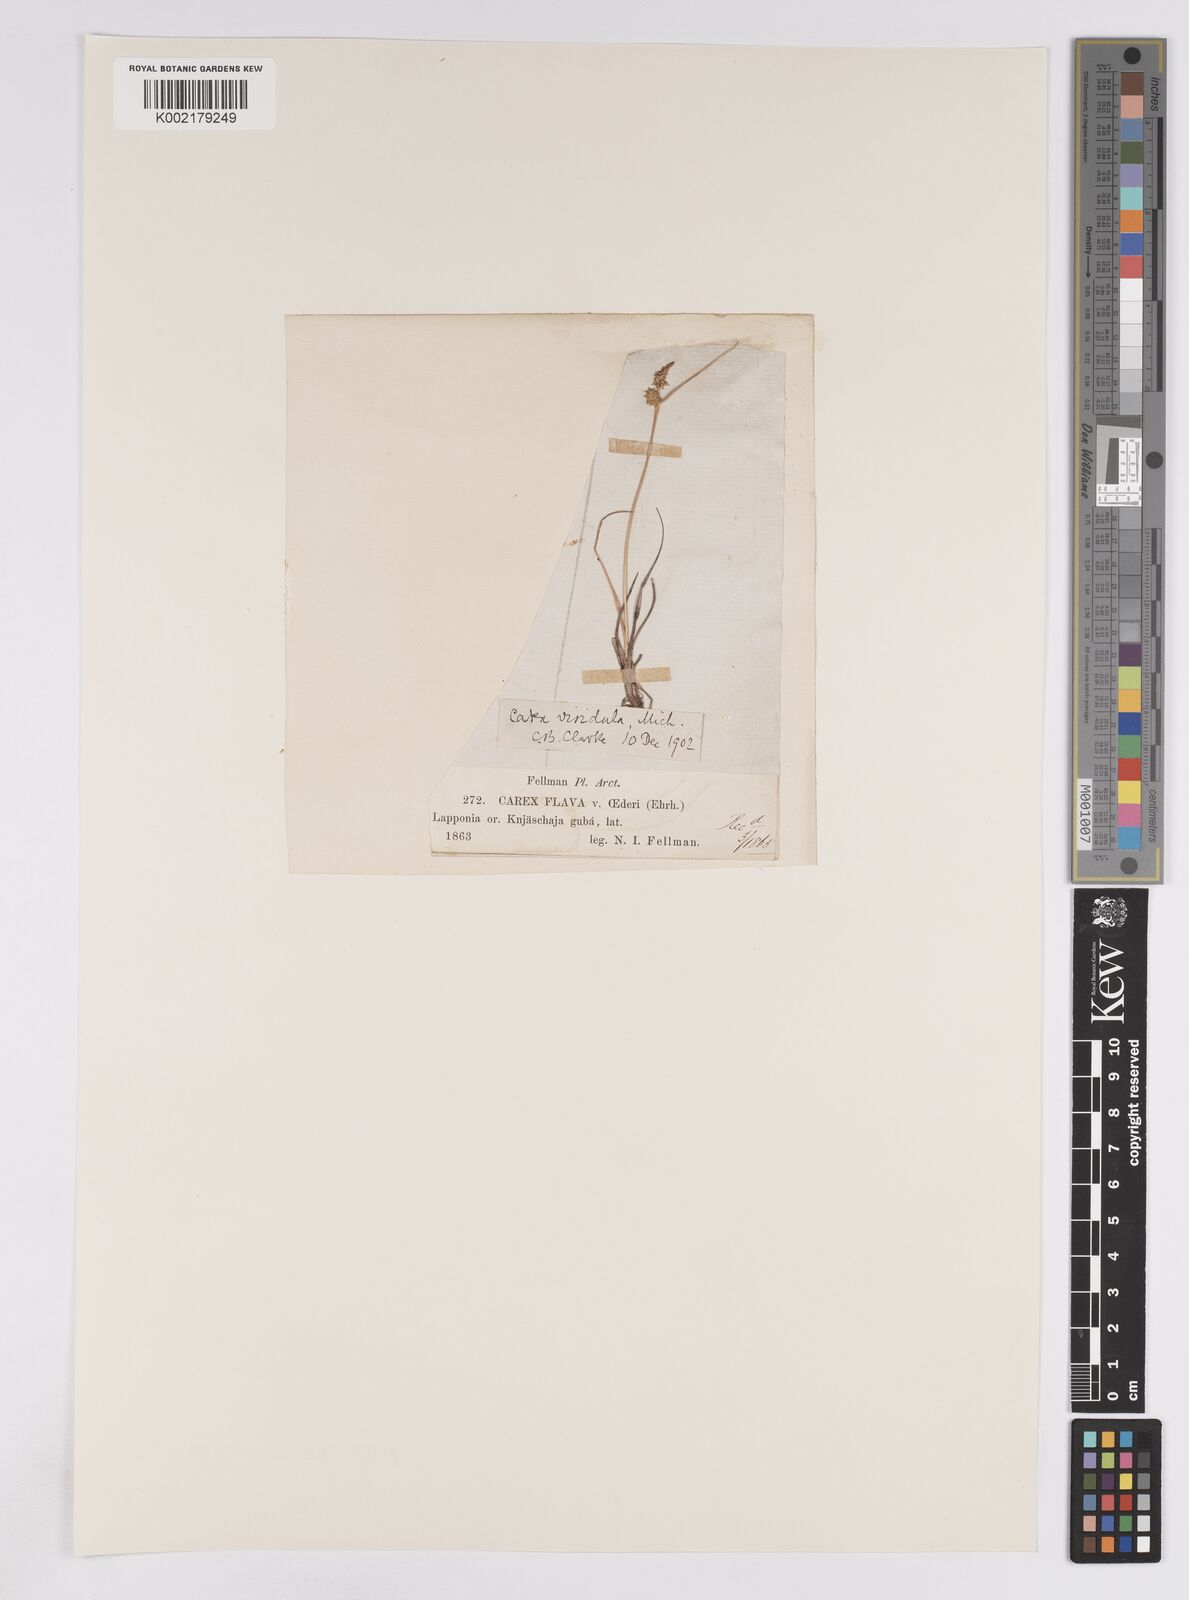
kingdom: Plantae
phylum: Tracheophyta
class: Liliopsida
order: Poales
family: Cyperaceae
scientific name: Cyperaceae
